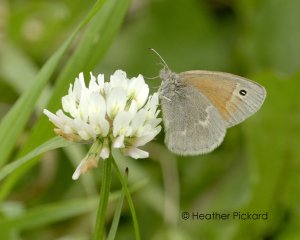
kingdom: Animalia
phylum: Arthropoda
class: Insecta
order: Lepidoptera
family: Nymphalidae
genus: Coenonympha
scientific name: Coenonympha tullia
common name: Large Heath
